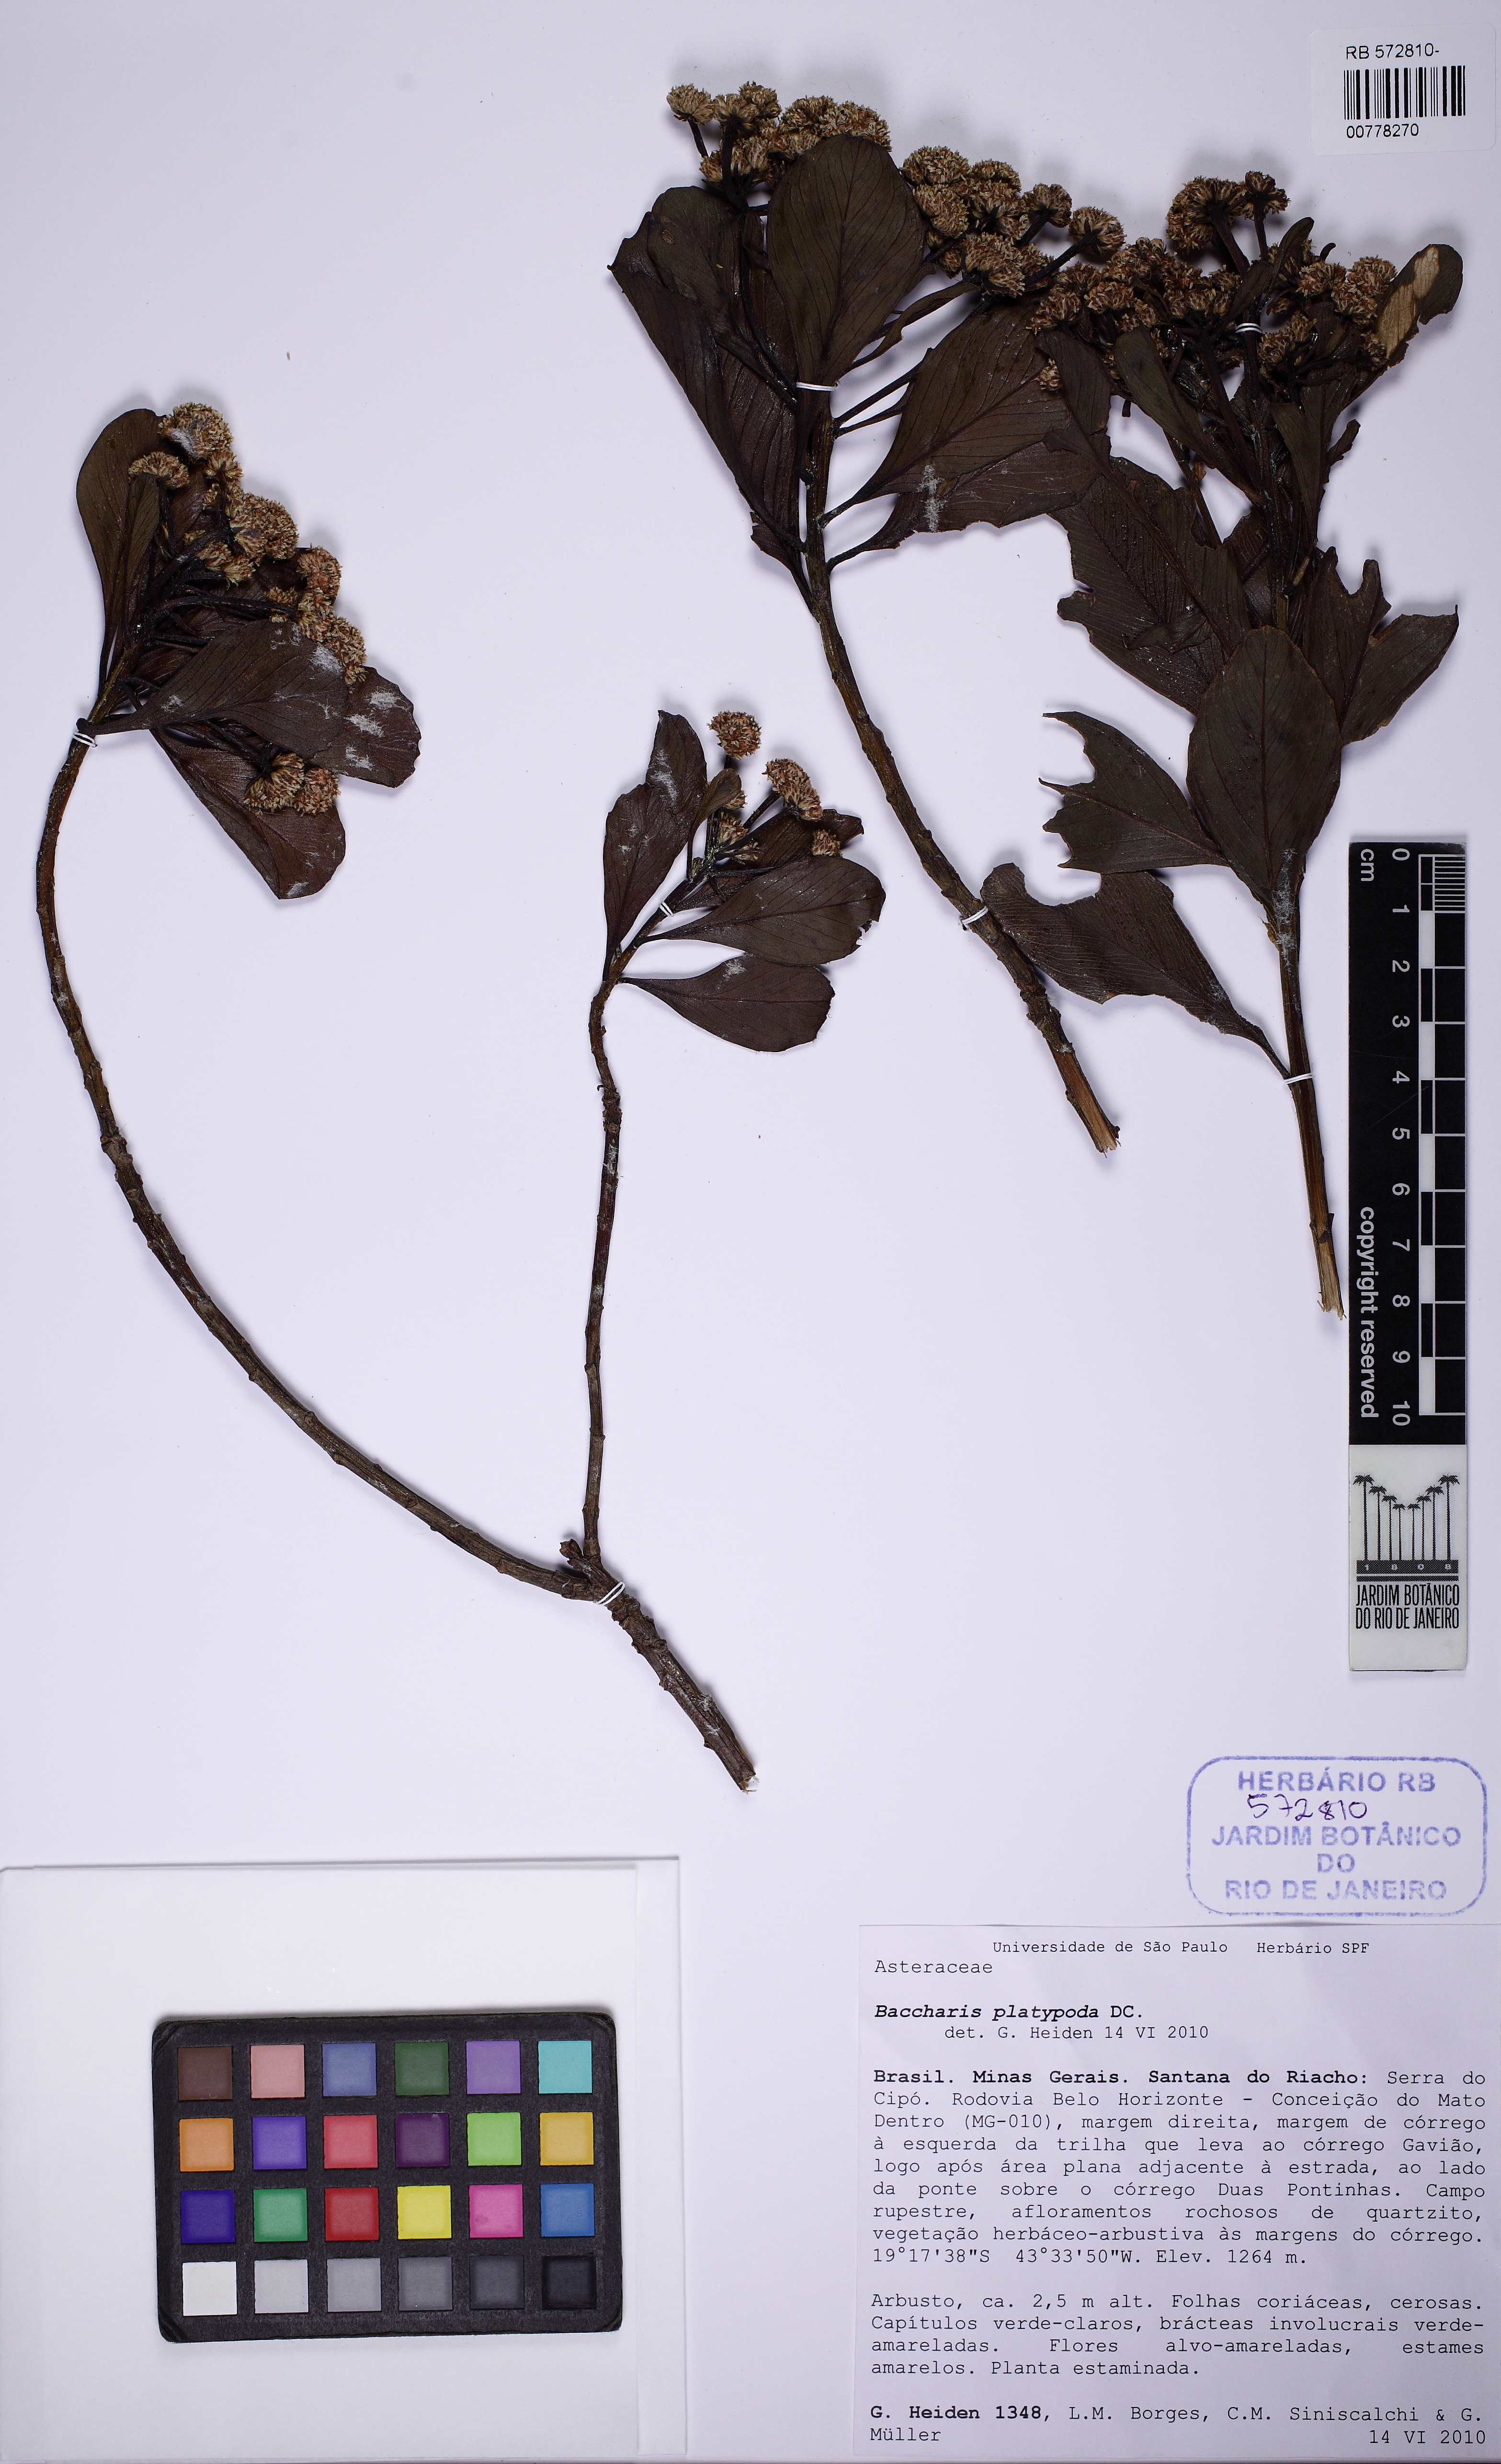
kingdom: Plantae
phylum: Tracheophyta
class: Magnoliopsida
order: Asterales
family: Asteraceae
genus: Baccharis
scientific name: Baccharis platypoda
